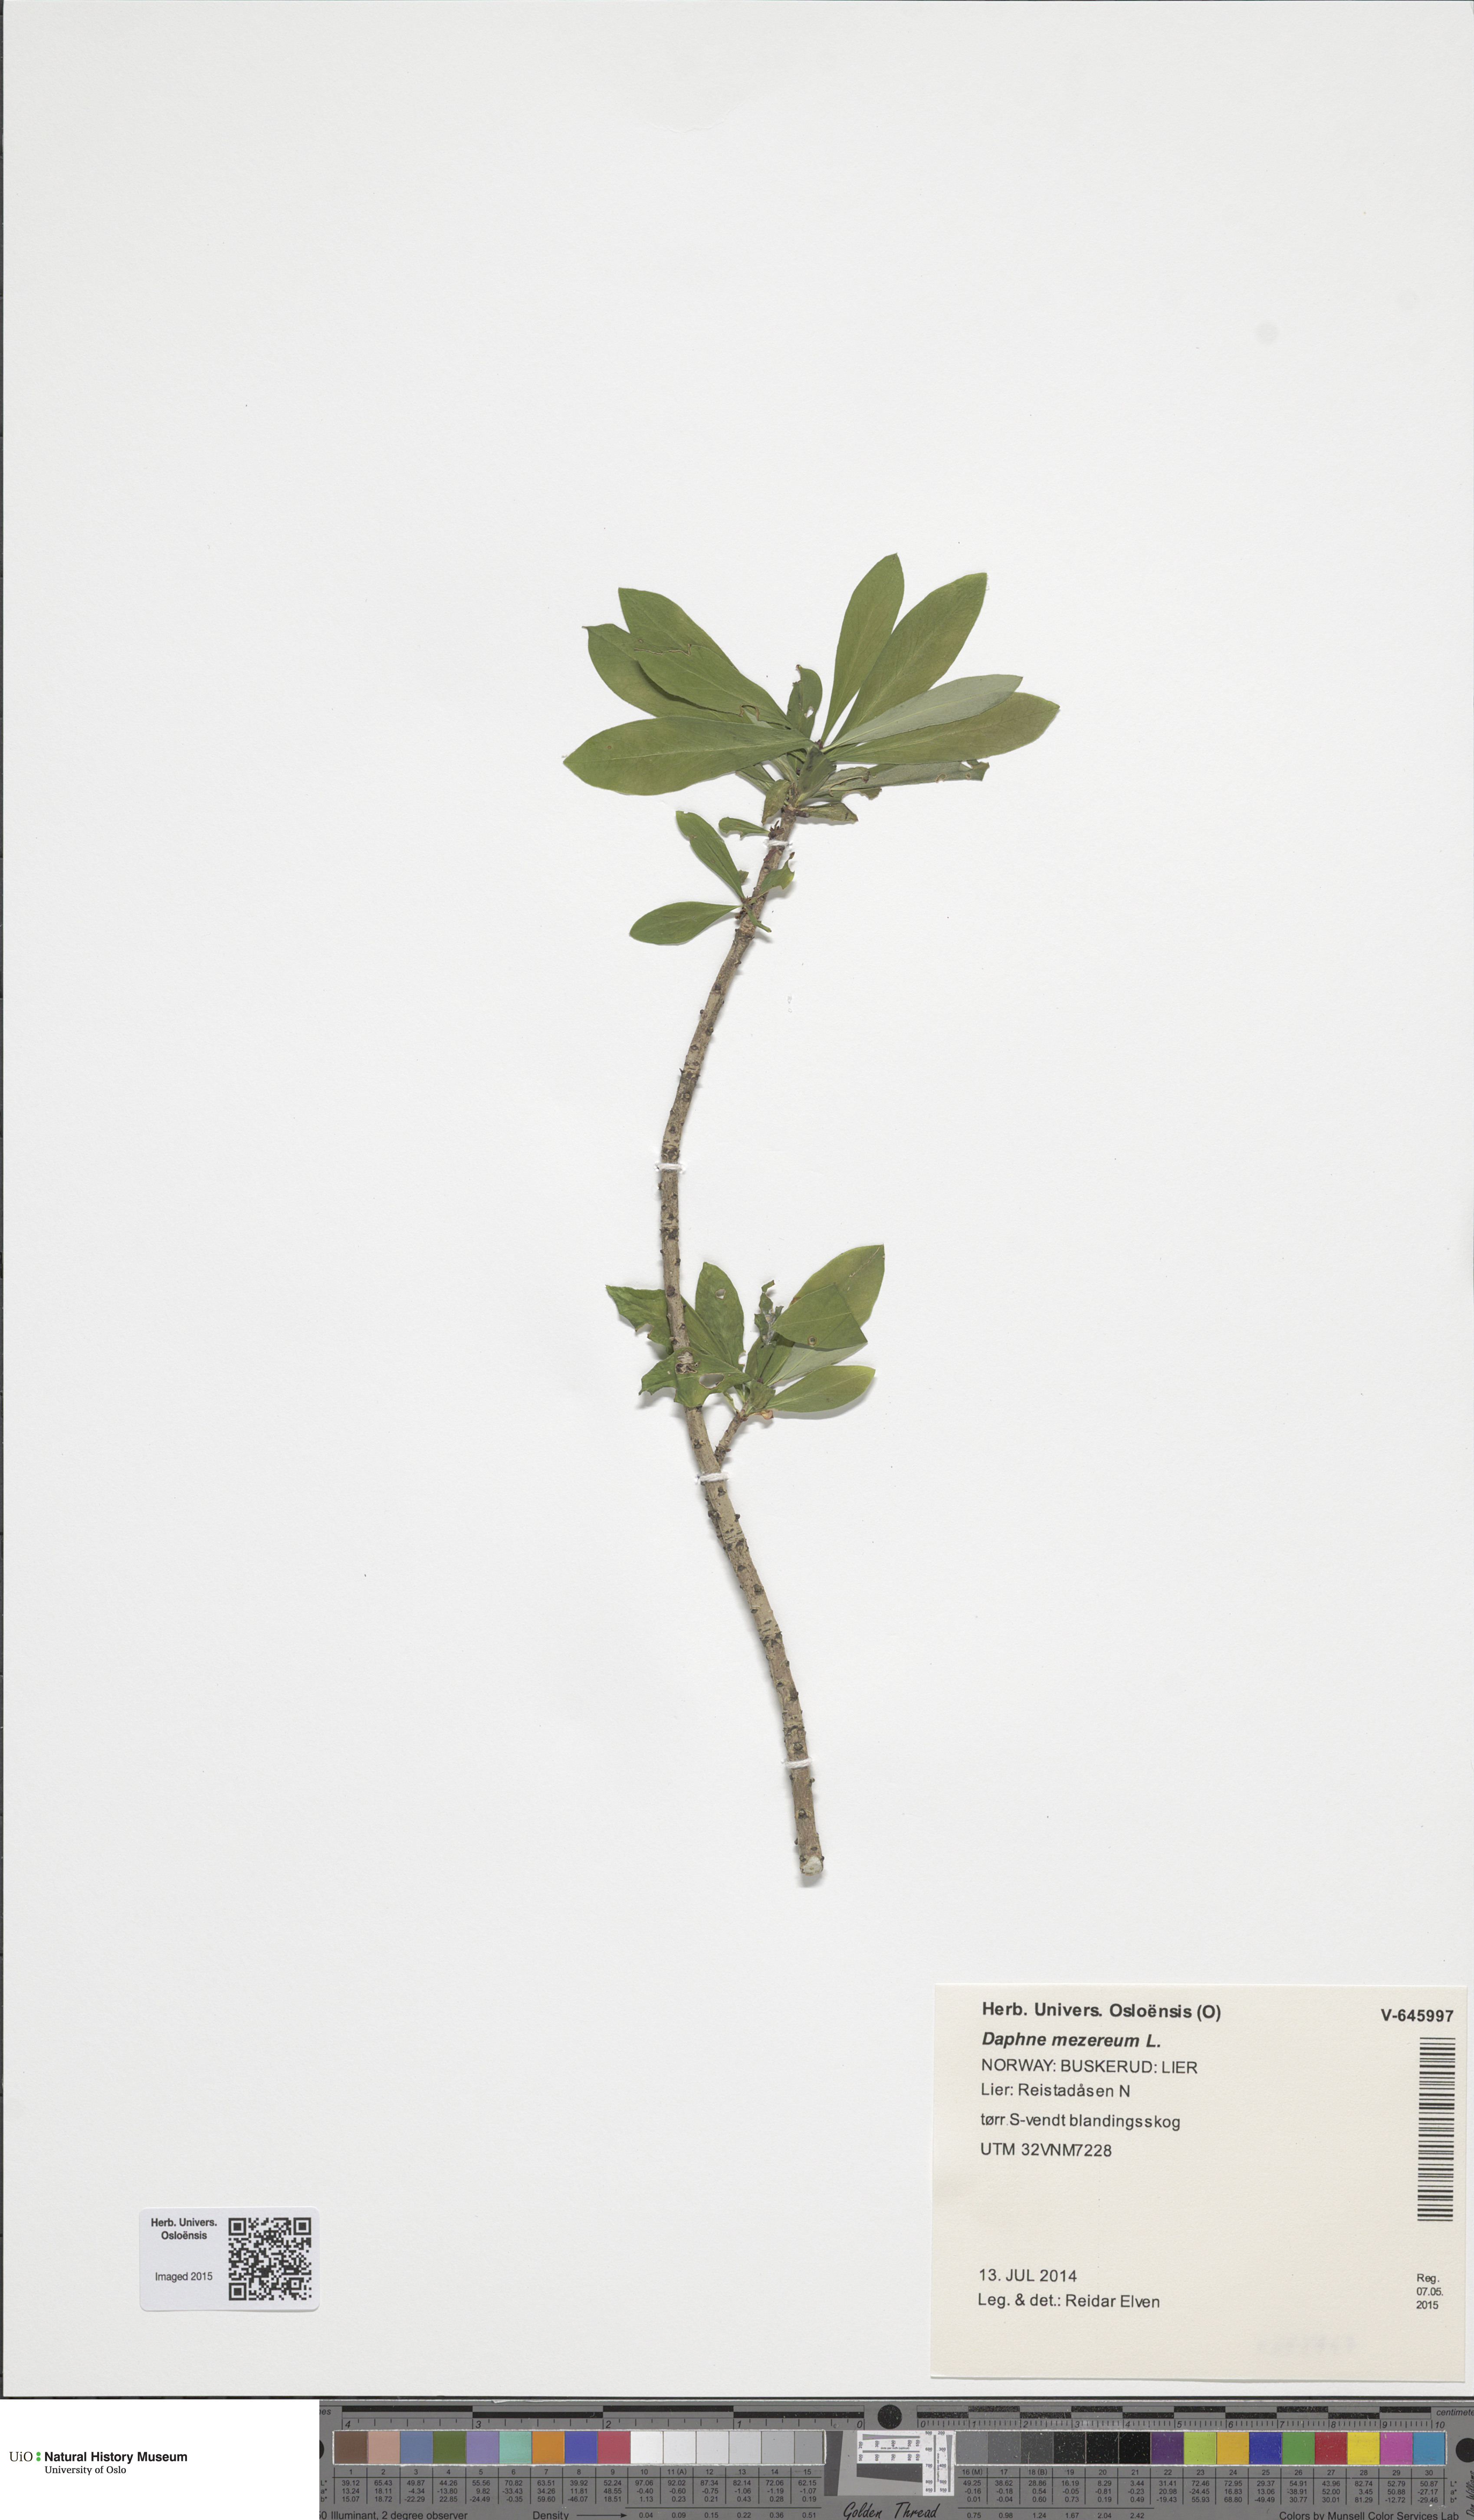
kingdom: Plantae
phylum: Tracheophyta
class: Magnoliopsida
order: Malvales
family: Thymelaeaceae
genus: Daphne
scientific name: Daphne mezereum
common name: Mezereon
